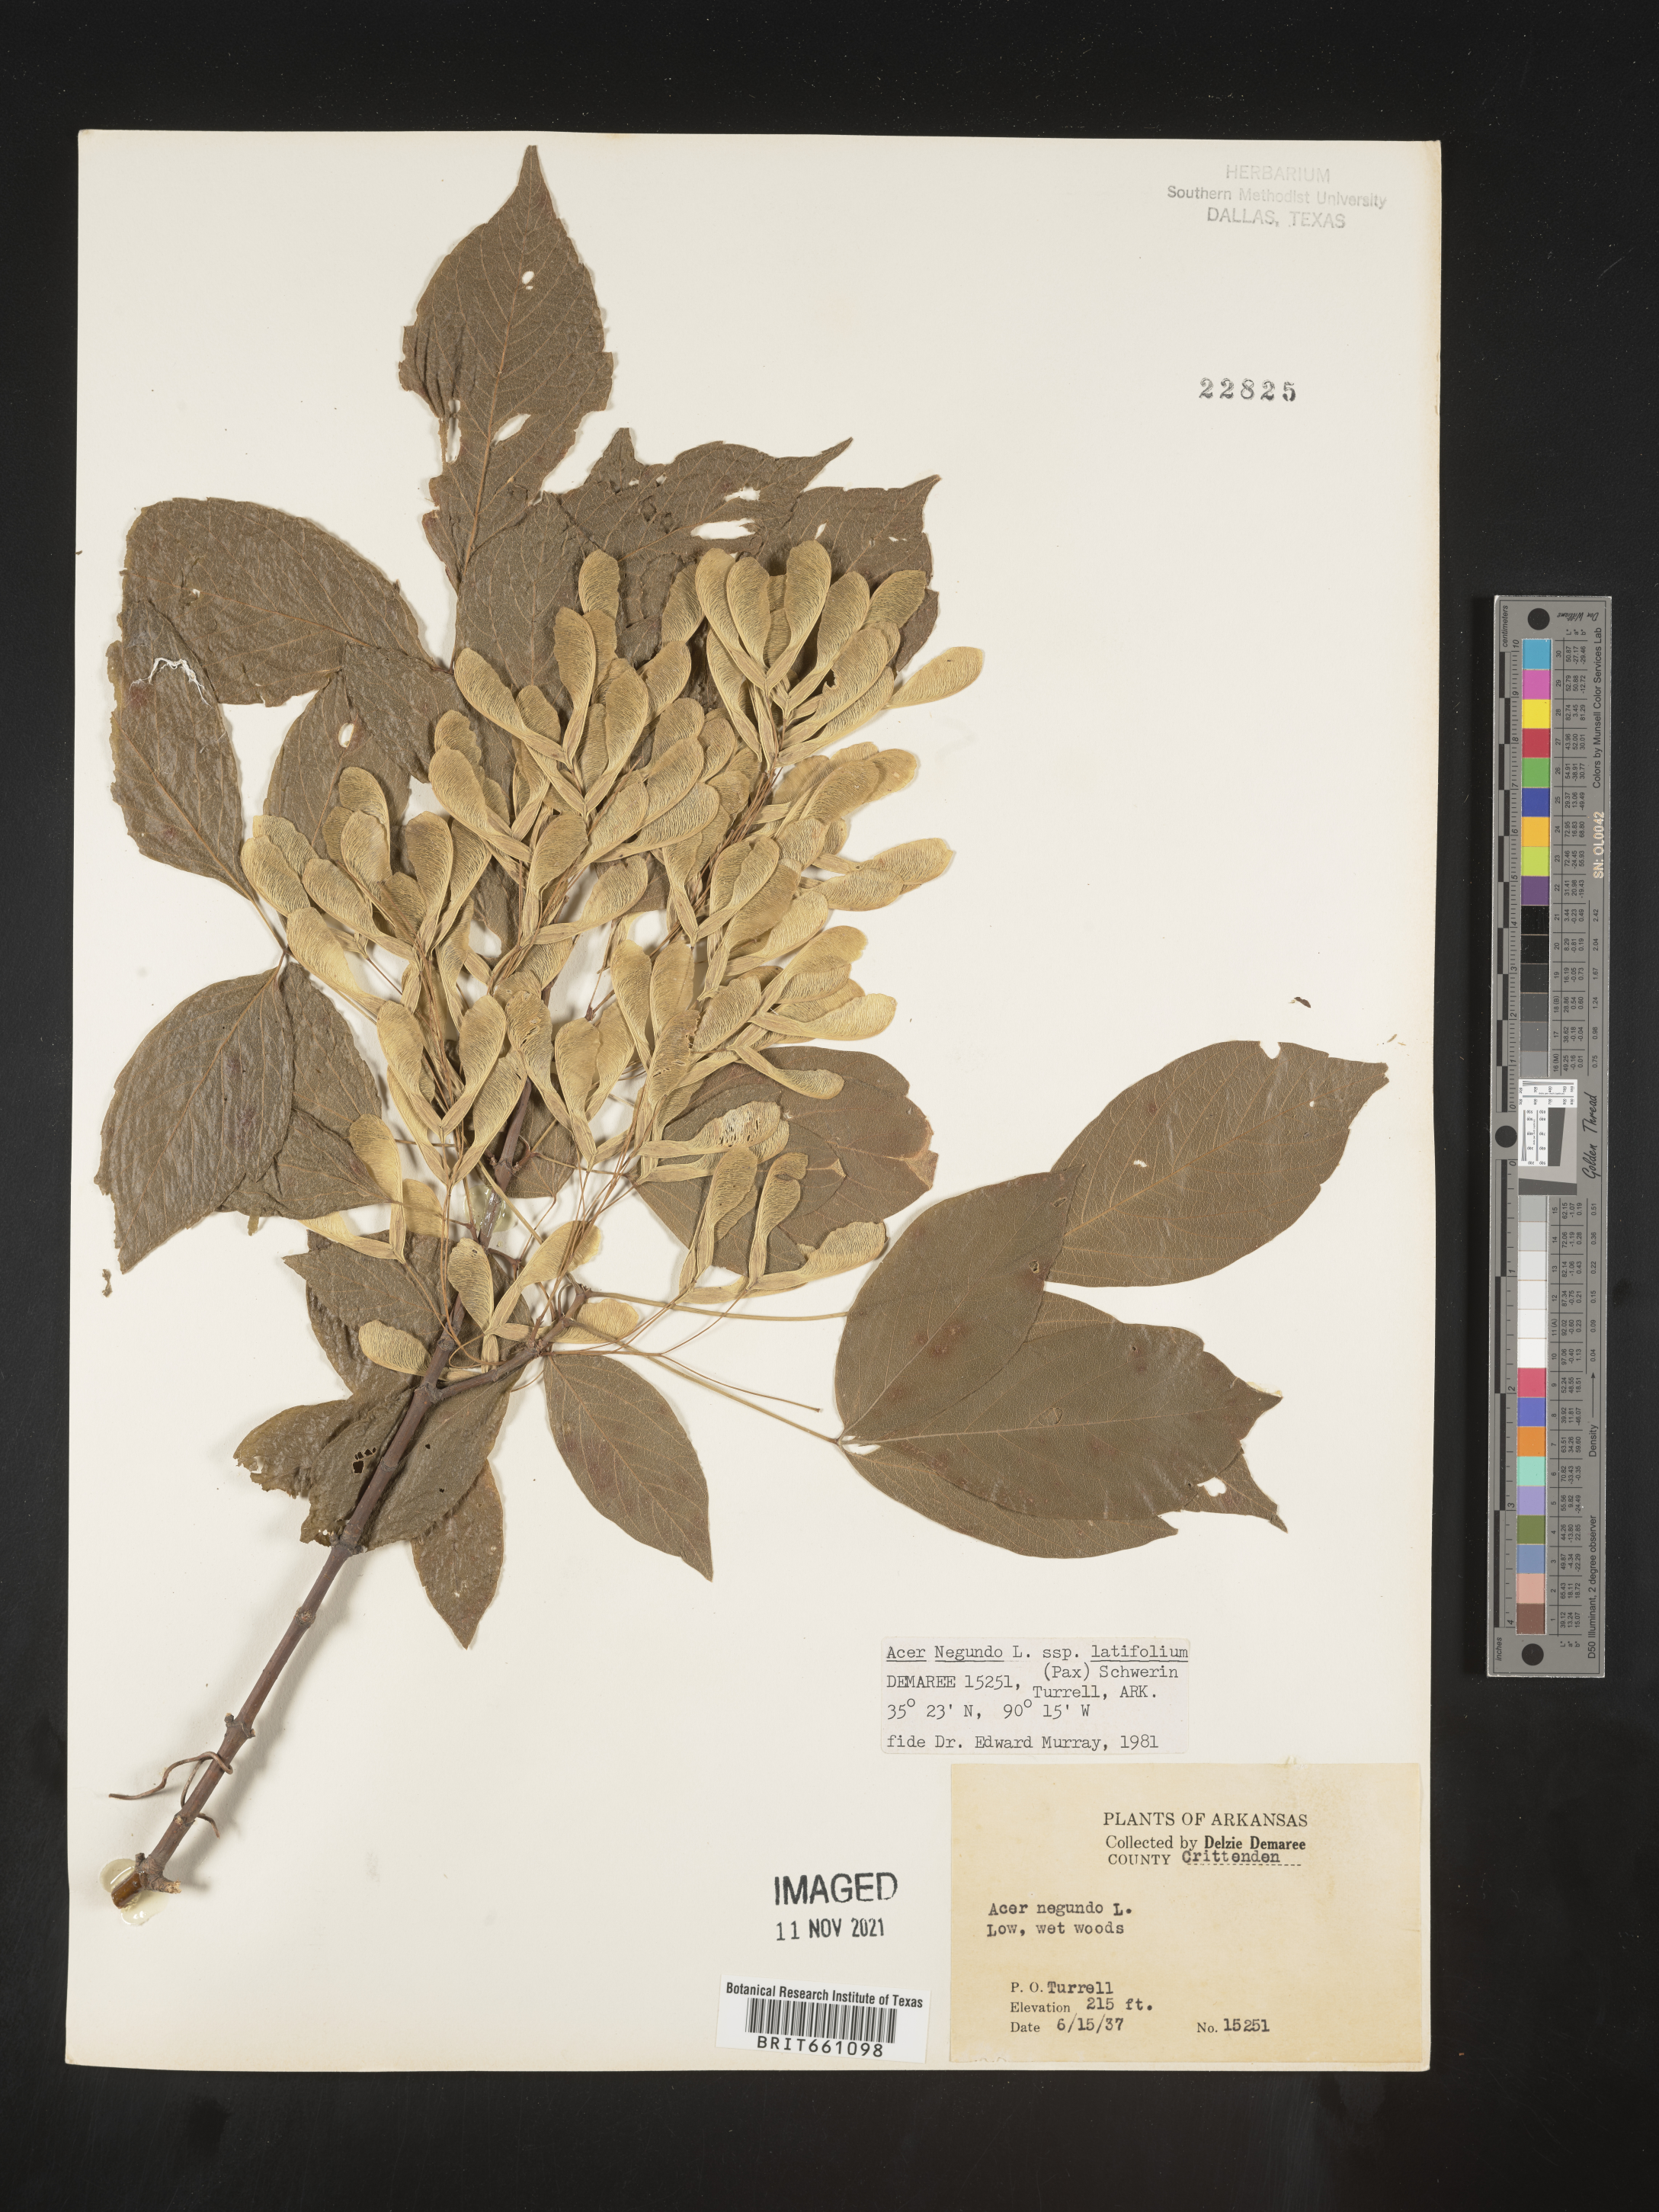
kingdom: Plantae
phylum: Tracheophyta
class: Magnoliopsida
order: Sapindales
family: Sapindaceae
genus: Acer
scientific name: Acer negundo
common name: Ashleaf maple
